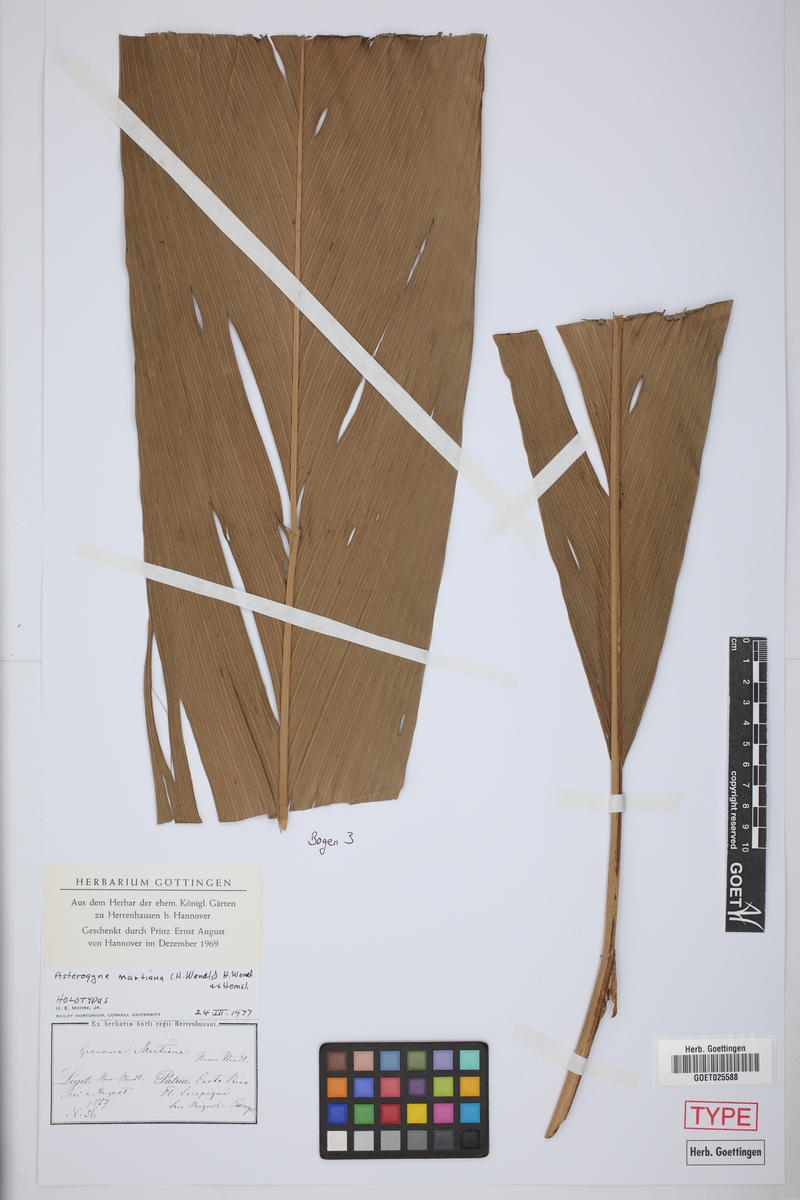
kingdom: Plantae
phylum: Tracheophyta
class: Liliopsida
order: Arecales
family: Arecaceae
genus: Asterogyne
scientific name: Asterogyne martiana
